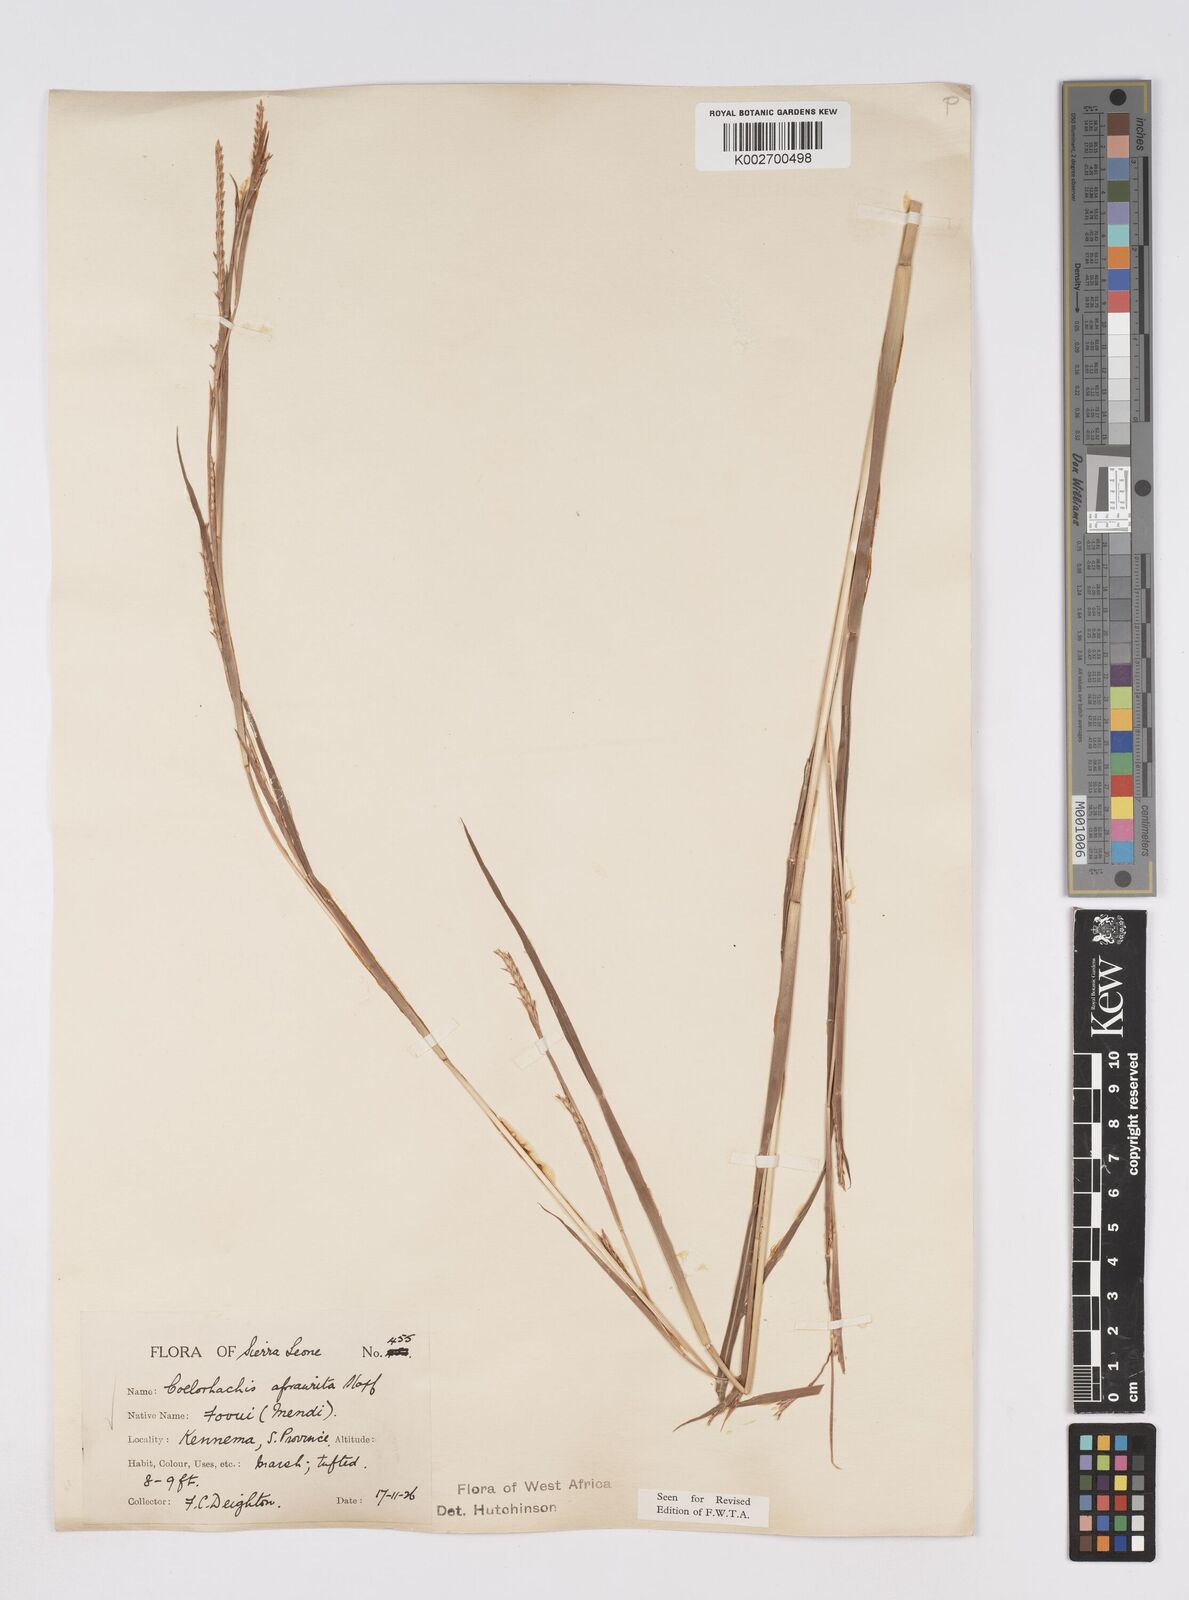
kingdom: Plantae
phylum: Tracheophyta
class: Liliopsida
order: Poales
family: Poaceae
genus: Rottboellia
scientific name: Rottboellia afraurita
